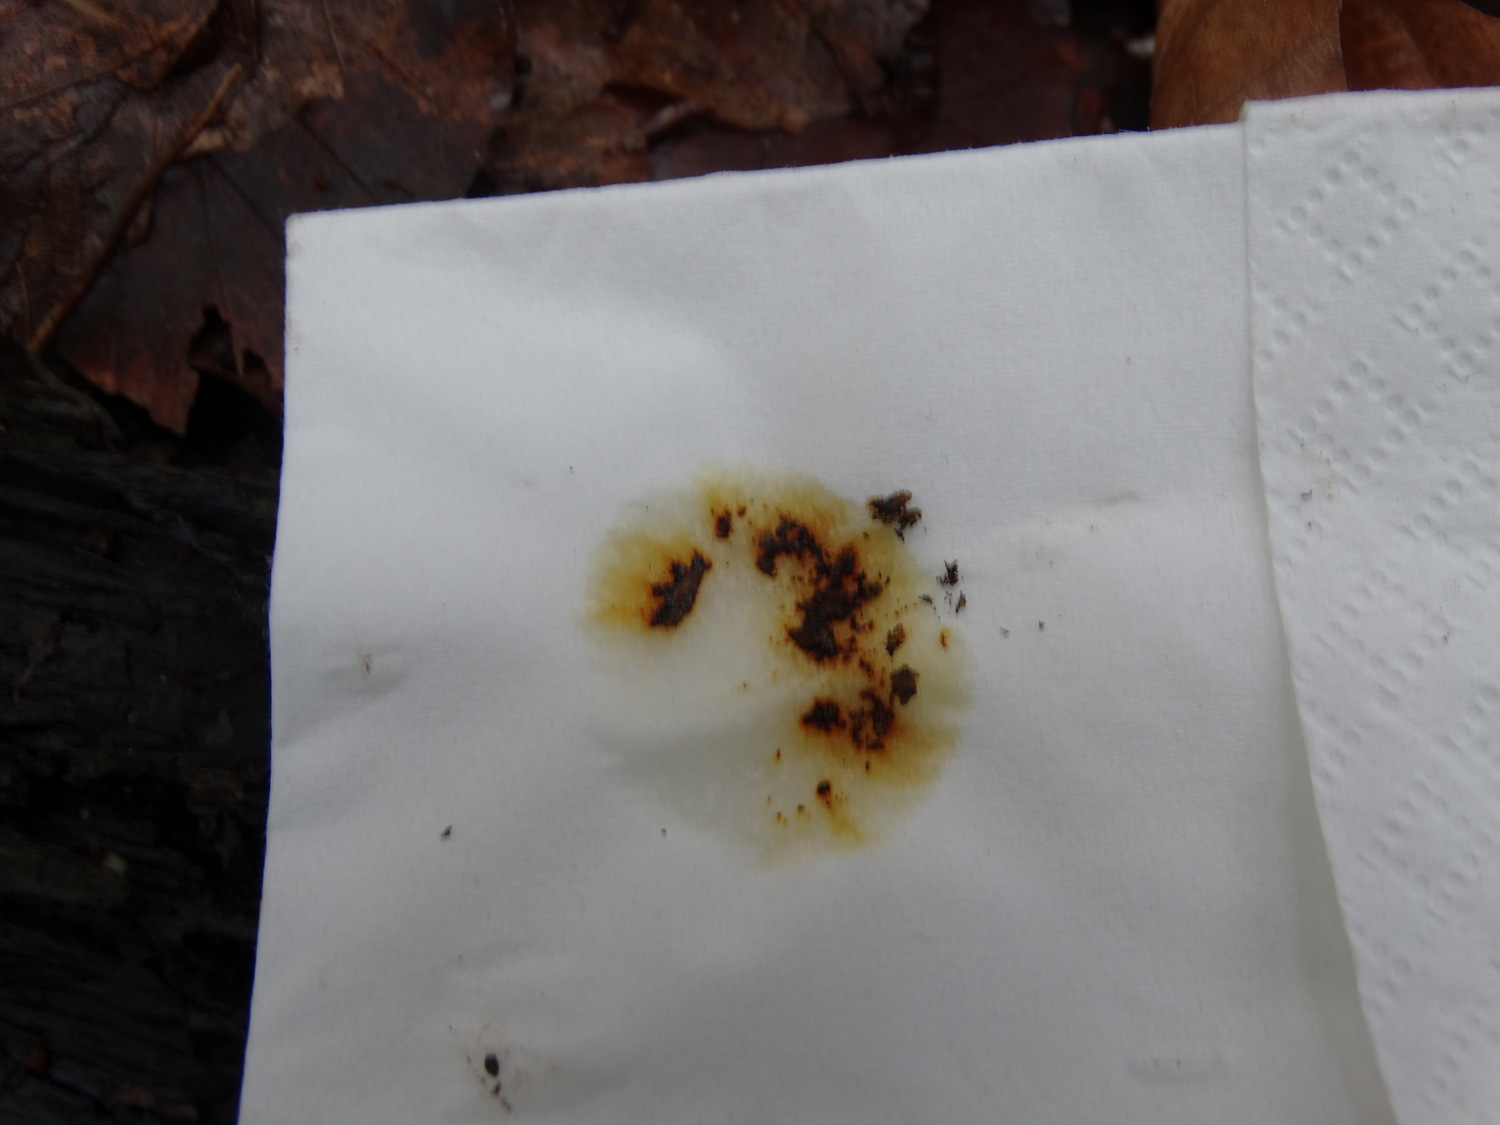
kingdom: Fungi
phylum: Ascomycota
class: Sordariomycetes
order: Xylariales
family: Hypoxylaceae
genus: Hypoxylon
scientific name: Hypoxylon petriniae
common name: nedsænket kulbær
